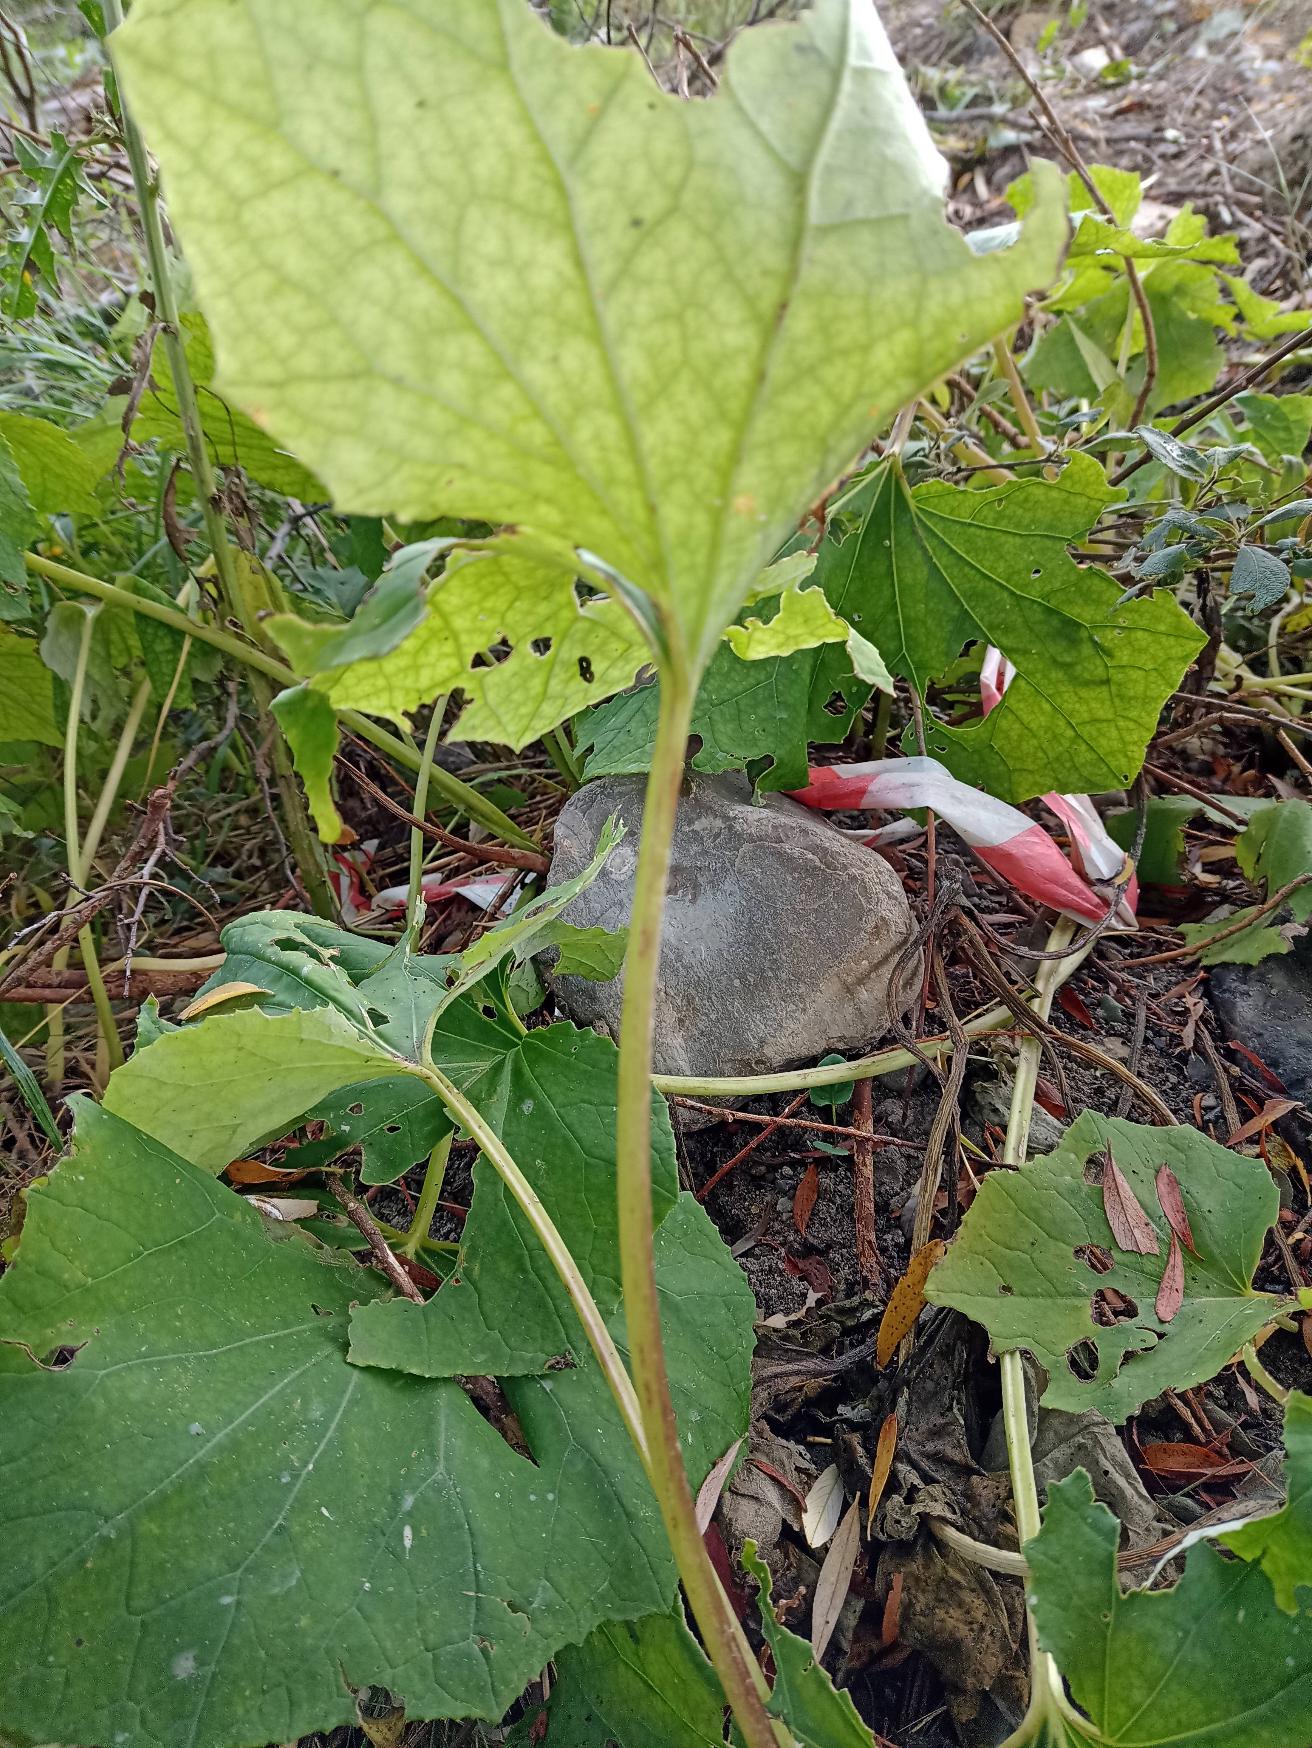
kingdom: Plantae
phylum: Tracheophyta
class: Magnoliopsida
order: Asterales
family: Asteraceae
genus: Tussilago
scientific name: Tussilago farfara
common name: Følfod
